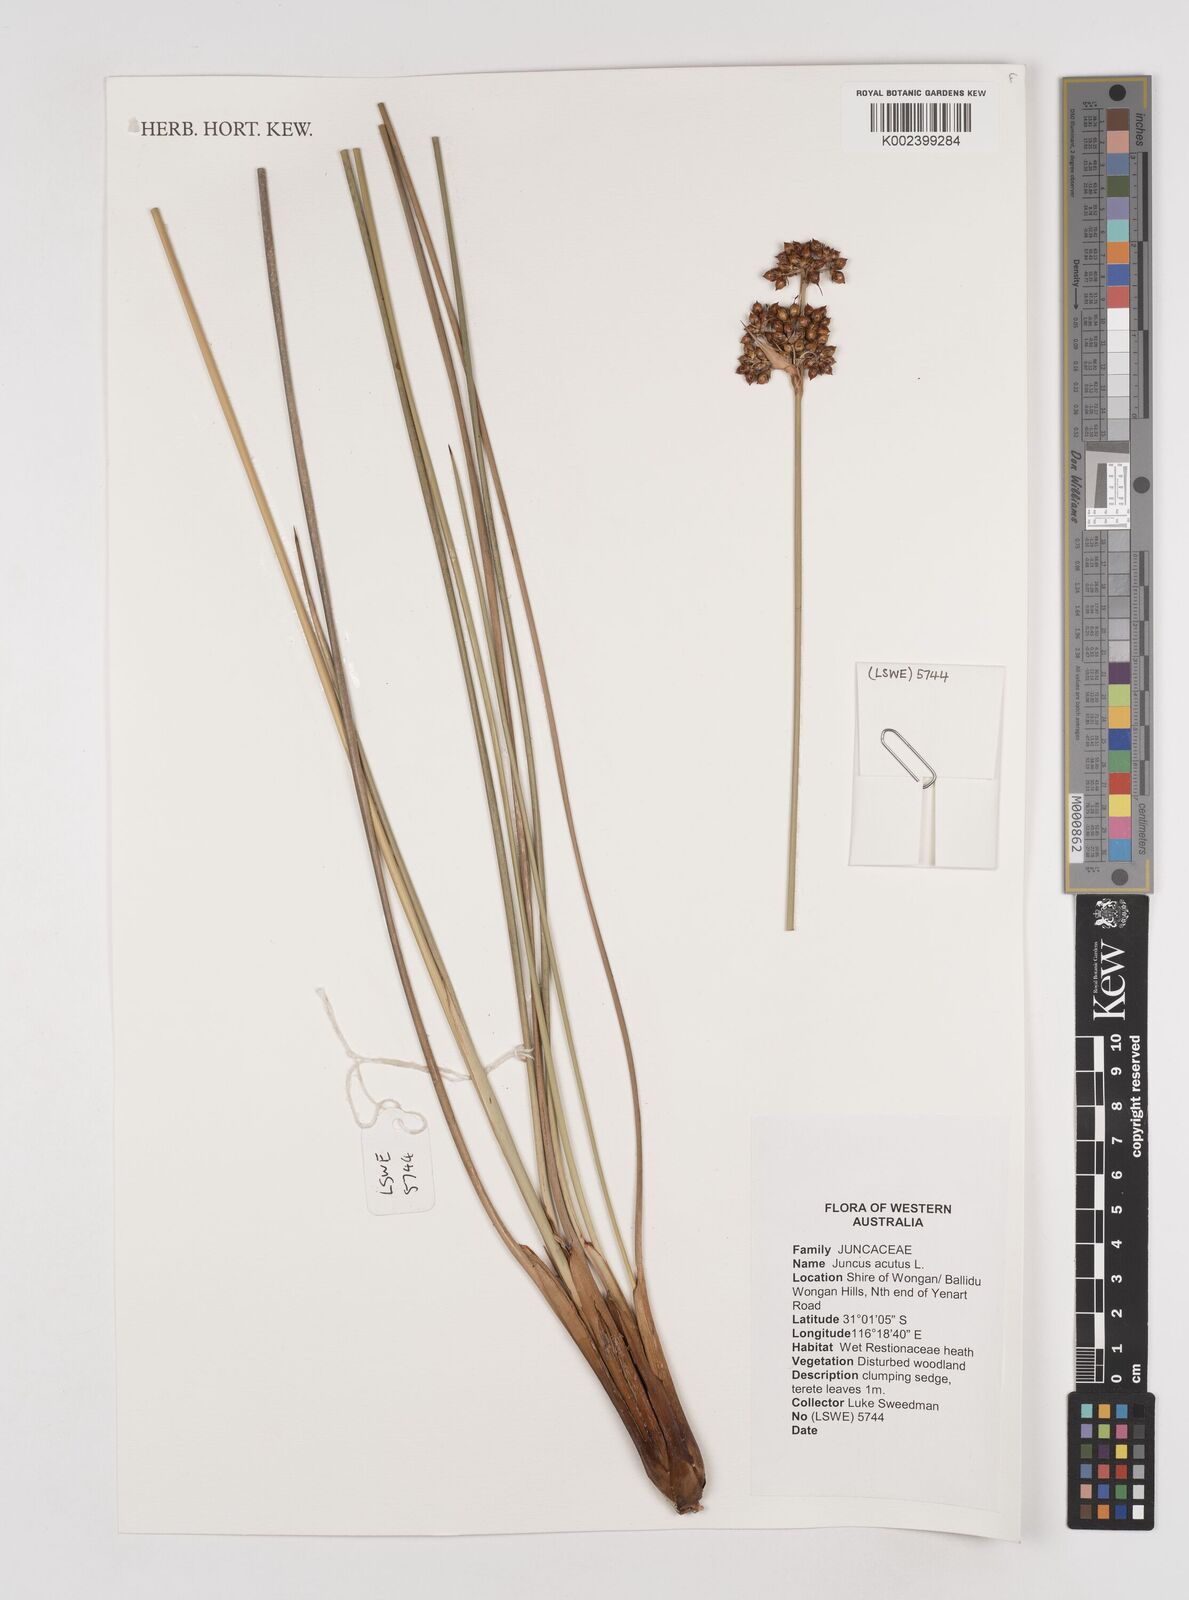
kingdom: Plantae
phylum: Tracheophyta
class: Liliopsida
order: Poales
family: Juncaceae
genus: Juncus
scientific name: Juncus acutus
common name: Sharp rush
